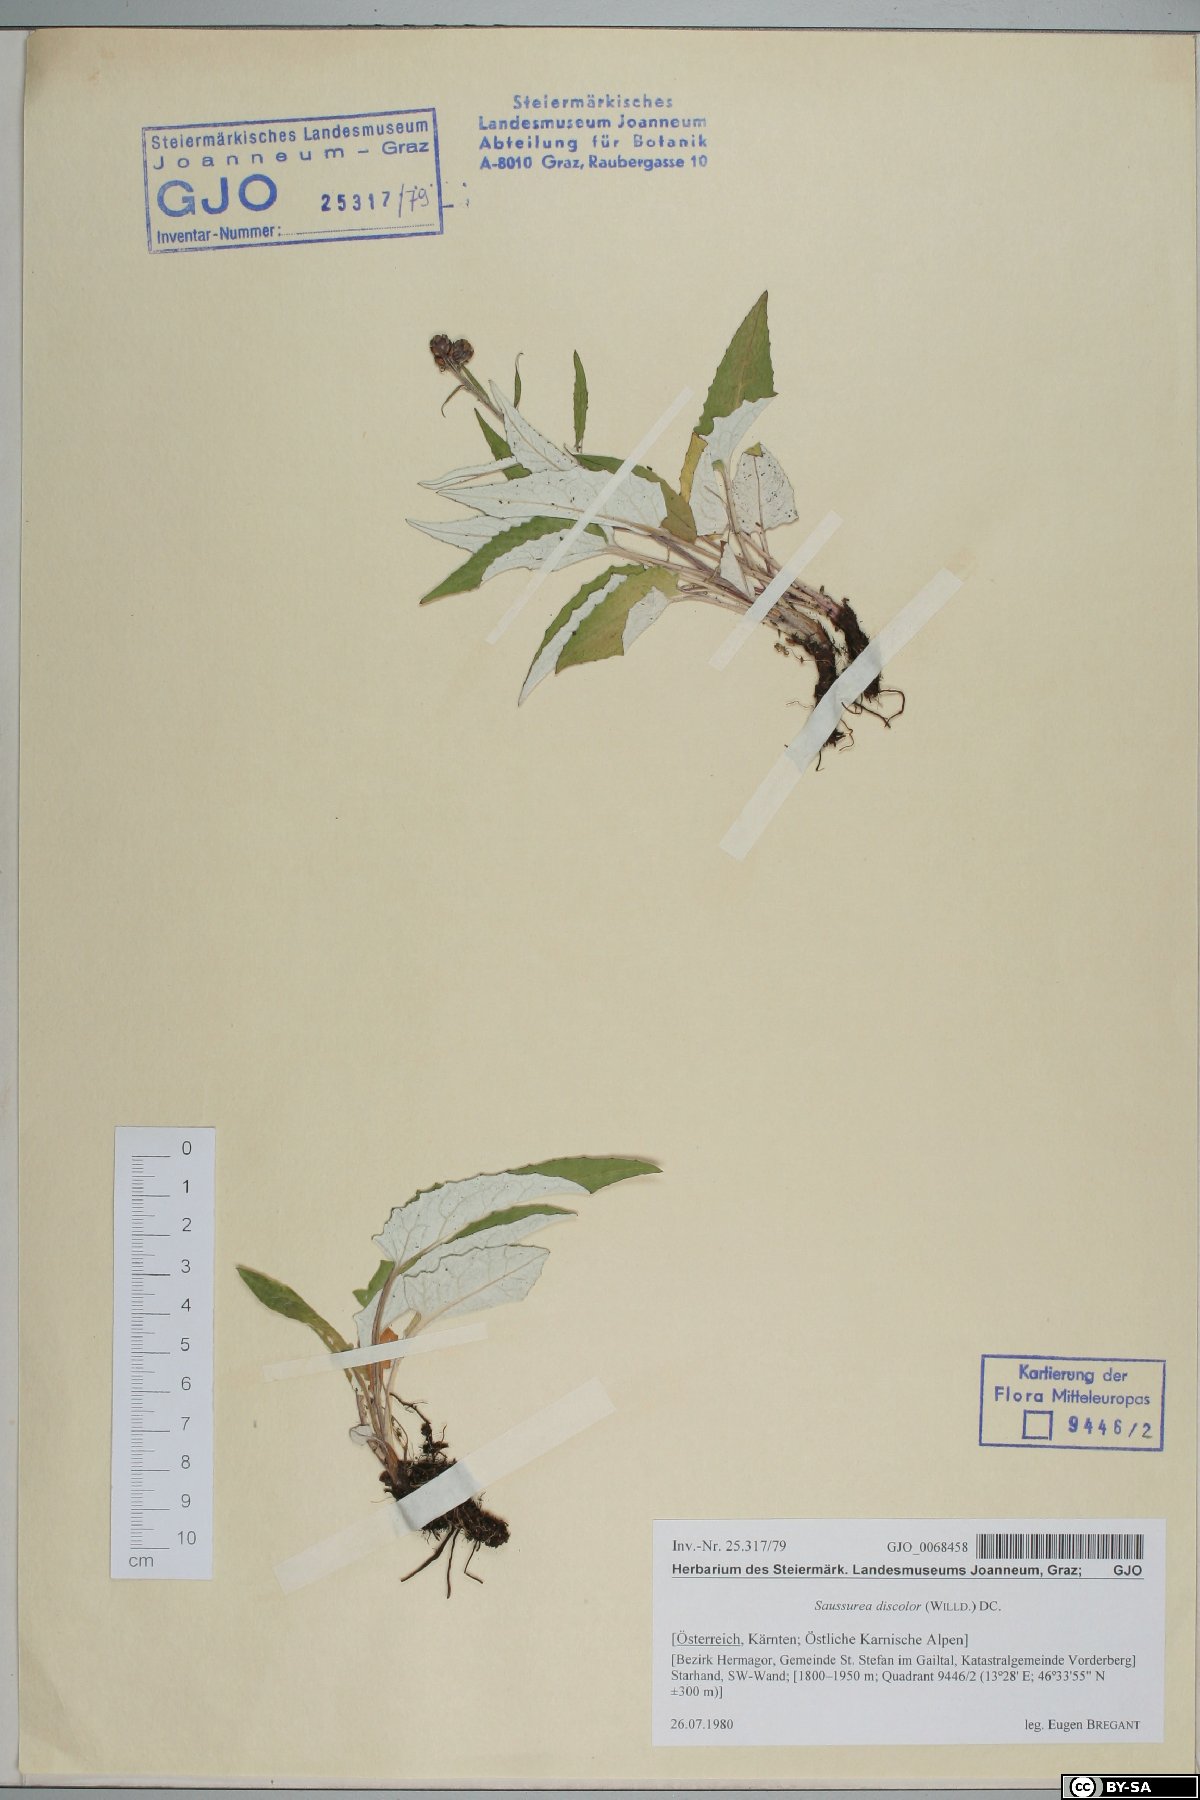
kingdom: Plantae
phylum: Tracheophyta
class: Magnoliopsida
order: Asterales
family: Asteraceae
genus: Saussurea
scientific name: Saussurea discolor
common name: Heart-leaved saussurea
